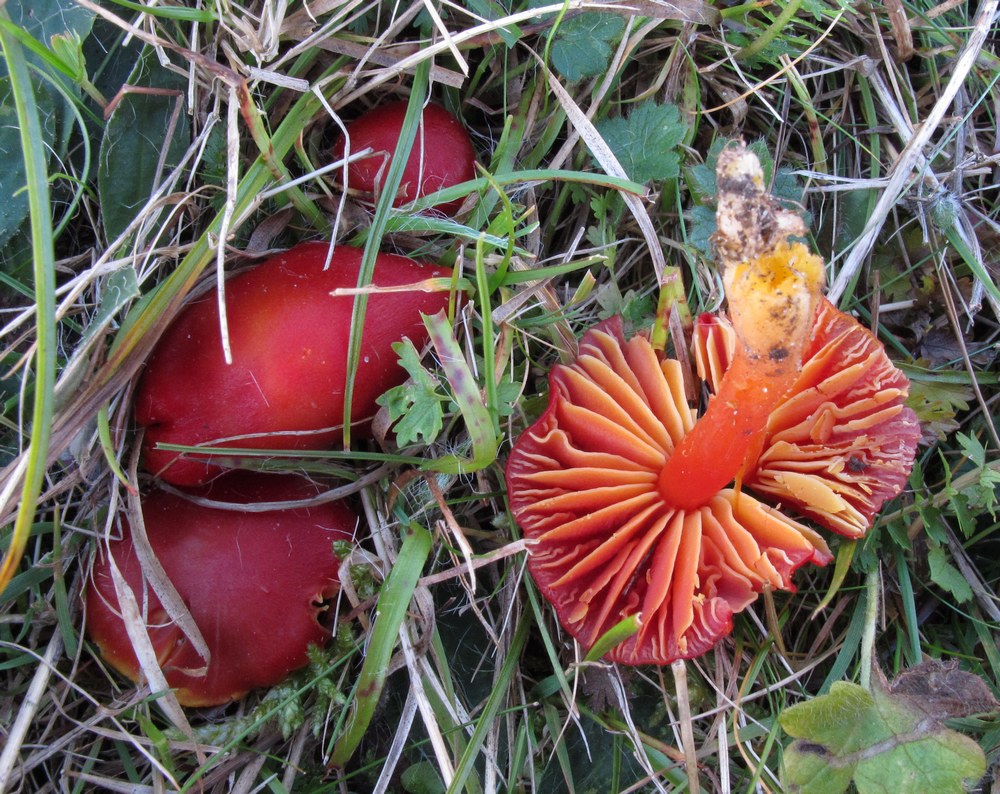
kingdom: Fungi
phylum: Basidiomycota
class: Agaricomycetes
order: Agaricales
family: Hygrophoraceae
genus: Hygrocybe
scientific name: Hygrocybe coccinea
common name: cinnober-vokshat
